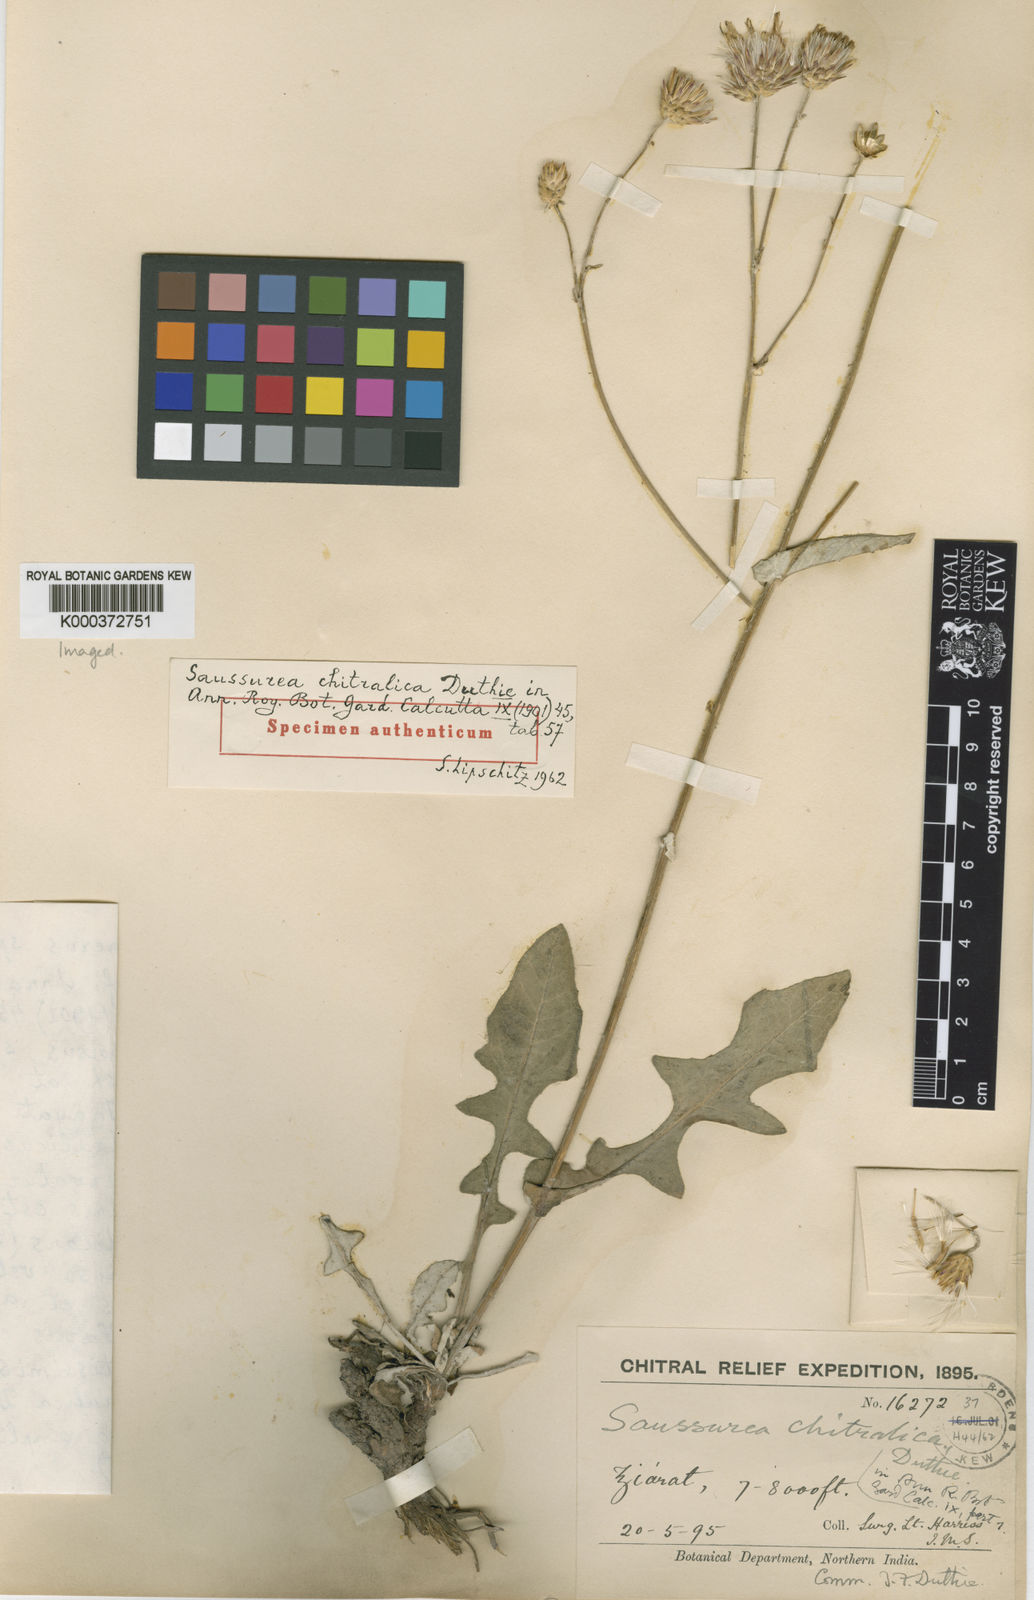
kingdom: Plantae
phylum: Tracheophyta
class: Magnoliopsida
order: Asterales
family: Asteraceae
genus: Jurinea
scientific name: Jurinea chitralica
